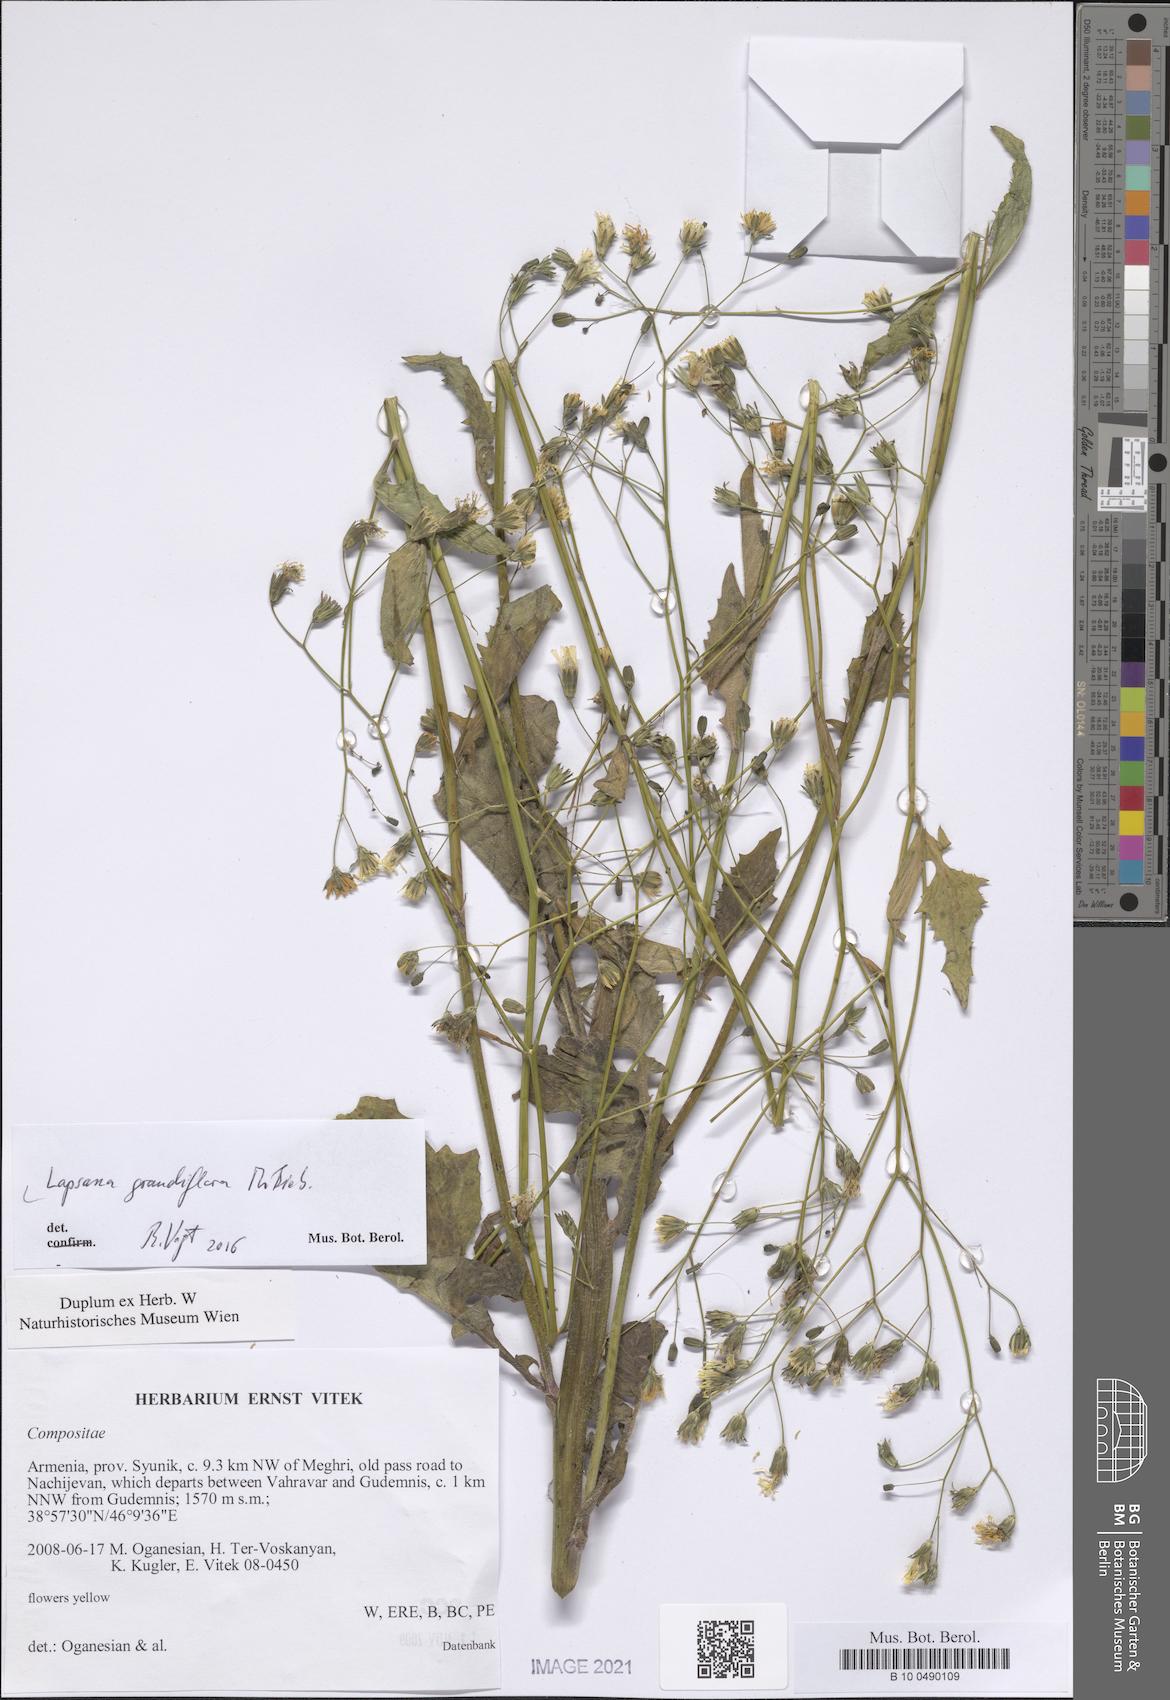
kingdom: Plantae
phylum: Tracheophyta
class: Magnoliopsida
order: Asterales
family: Asteraceae
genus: Lapsana
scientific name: Lapsana communis
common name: Nipplewort
